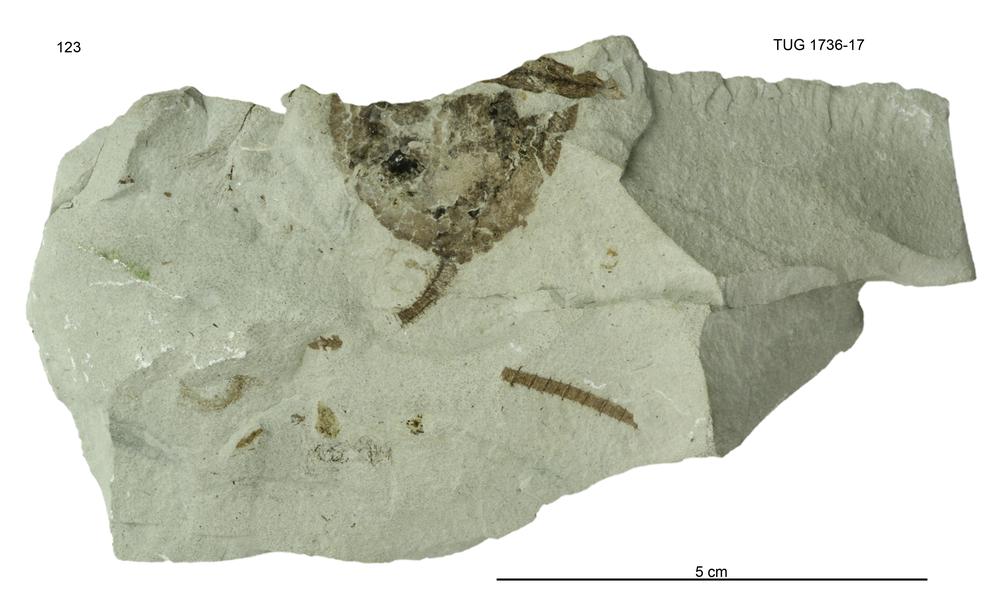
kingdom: Animalia
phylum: Echinodermata
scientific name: Echinodermata
